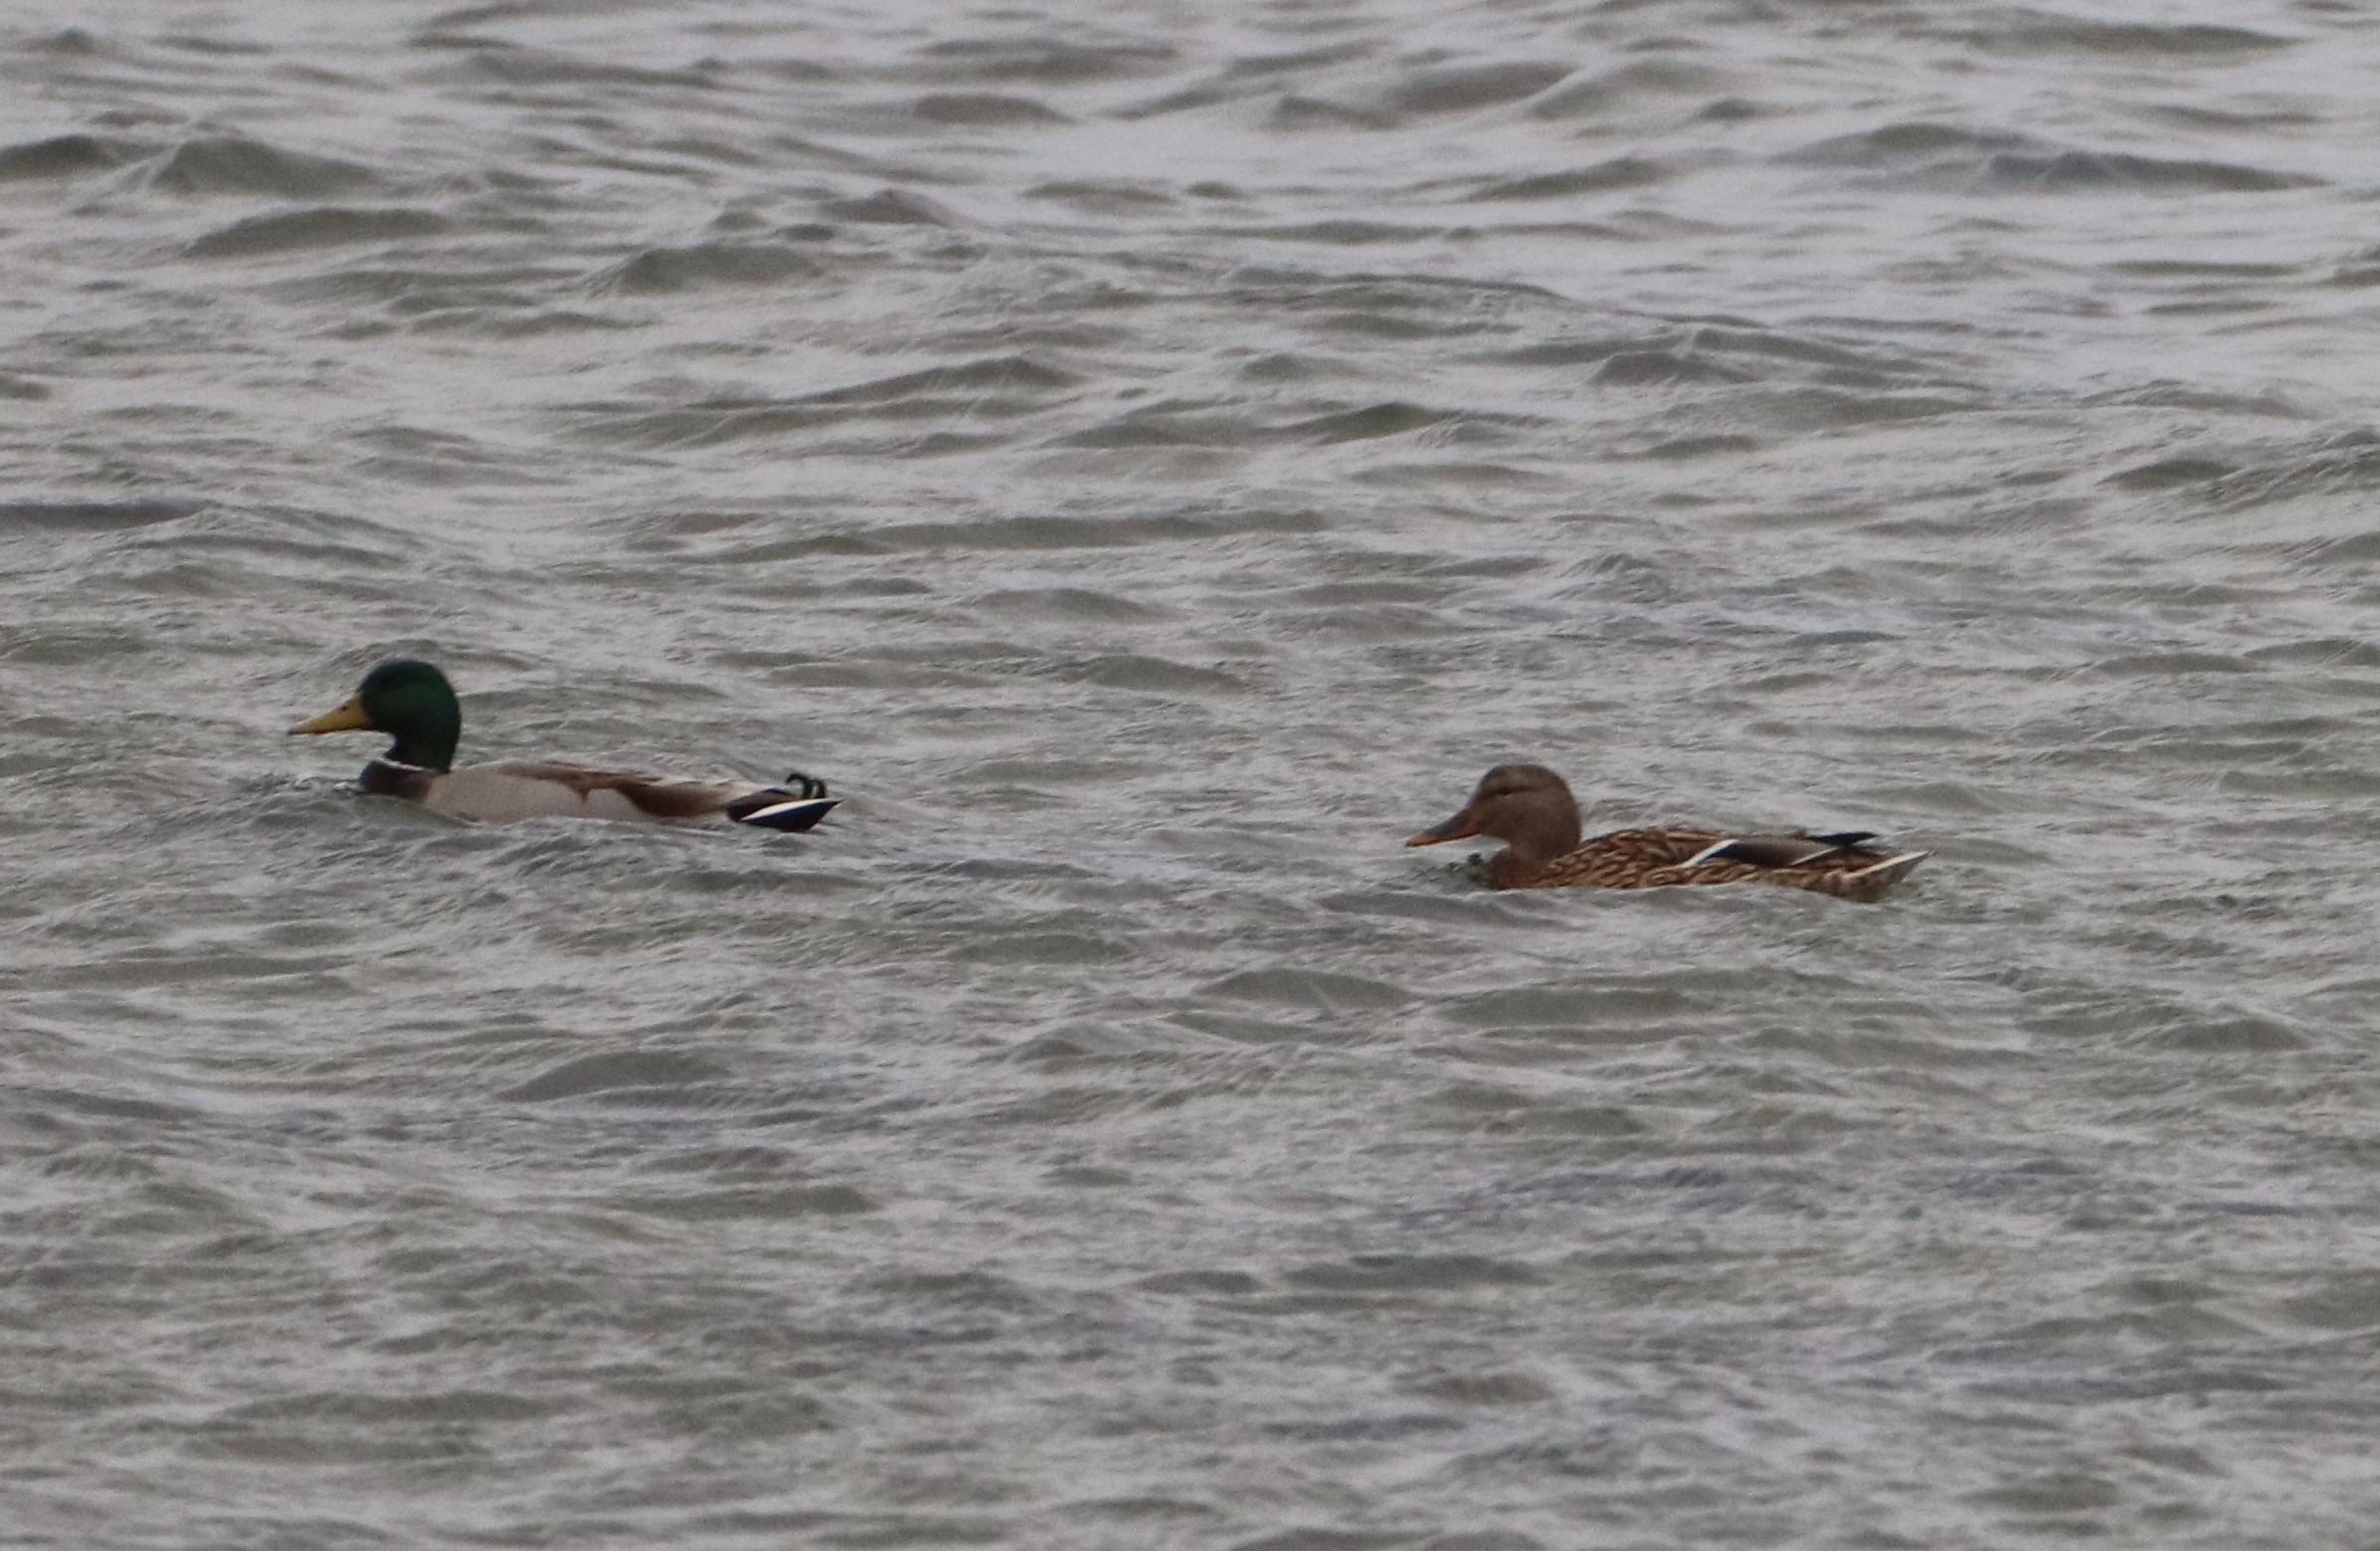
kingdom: Animalia
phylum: Chordata
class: Aves
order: Anseriformes
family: Anatidae
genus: Anas
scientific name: Anas platyrhynchos
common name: Gråand
